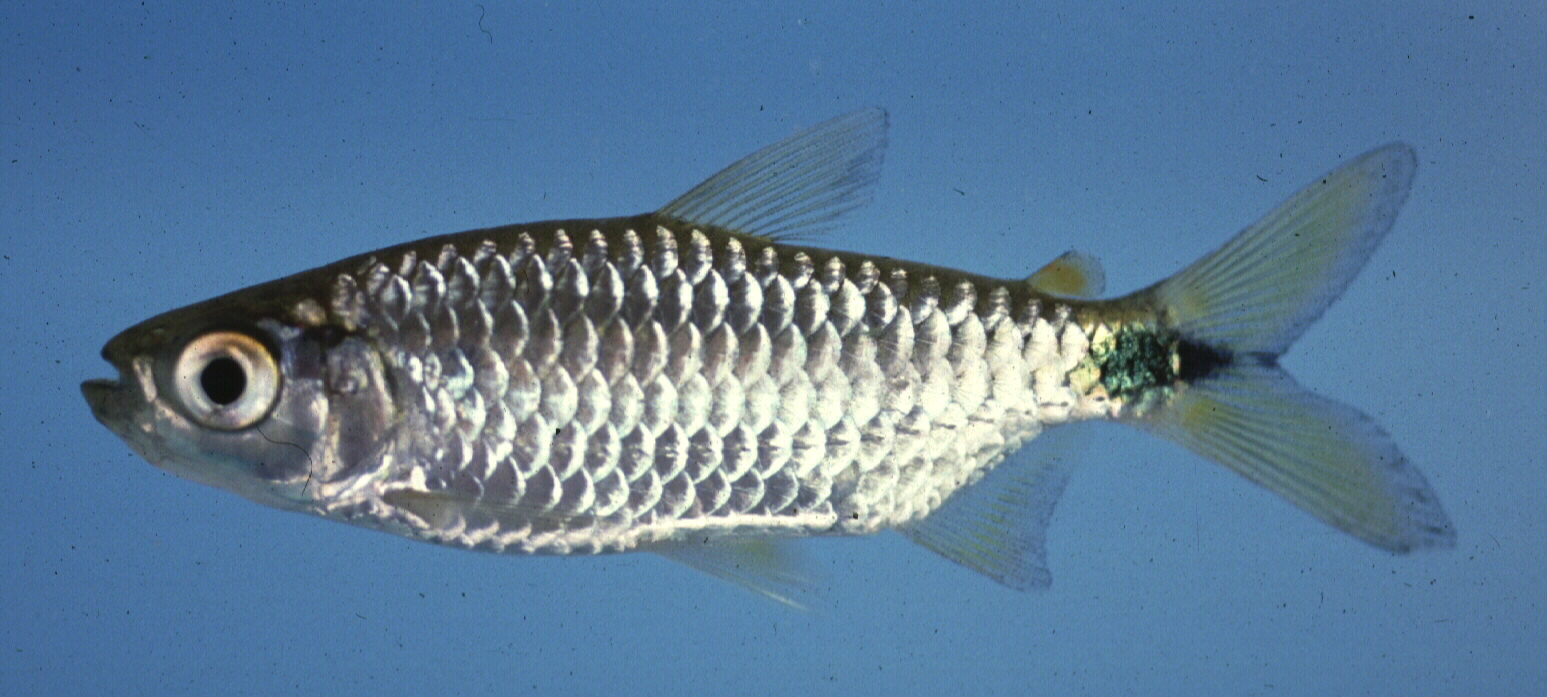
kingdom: Animalia
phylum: Chordata
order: Characiformes
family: Alestidae
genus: Brycinus
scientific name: Brycinus imberi
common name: Imberi
